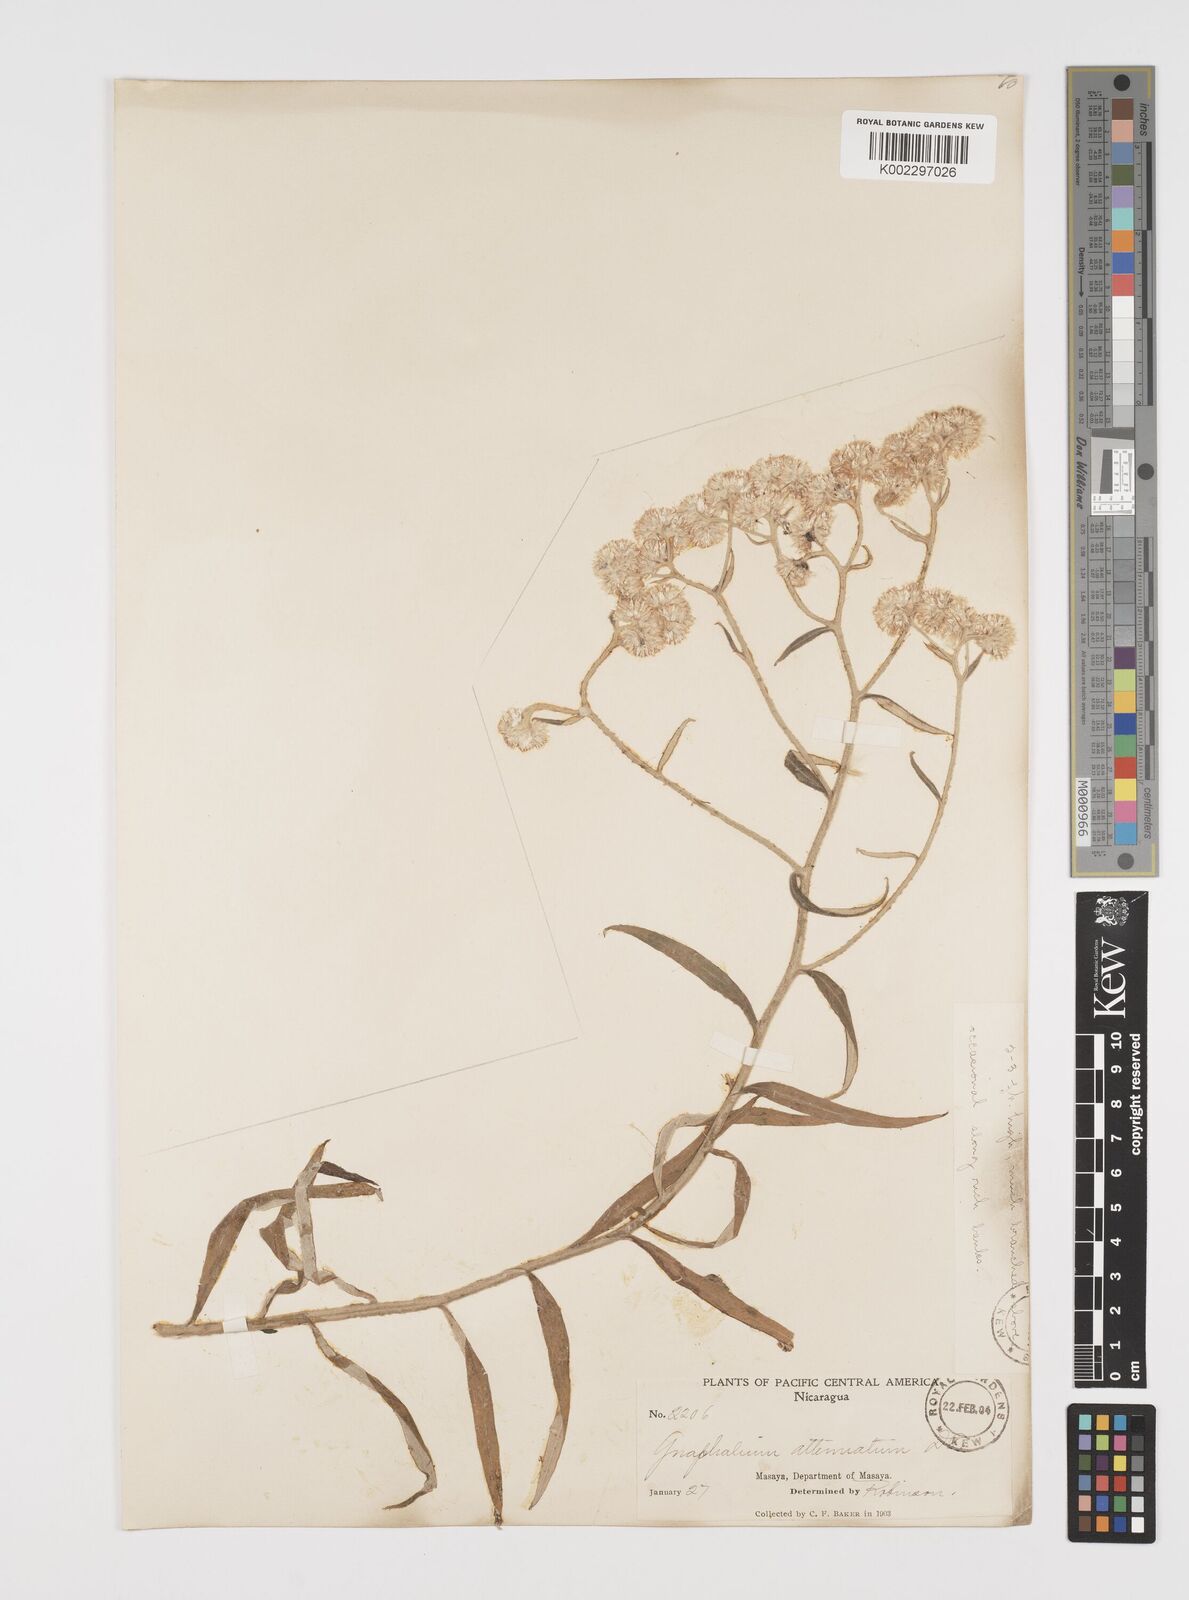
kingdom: Plantae
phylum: Tracheophyta
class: Magnoliopsida
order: Asterales
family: Asteraceae
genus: Pseudognaphalium
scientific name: Pseudognaphalium attenuatum
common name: Tapered cudweed
